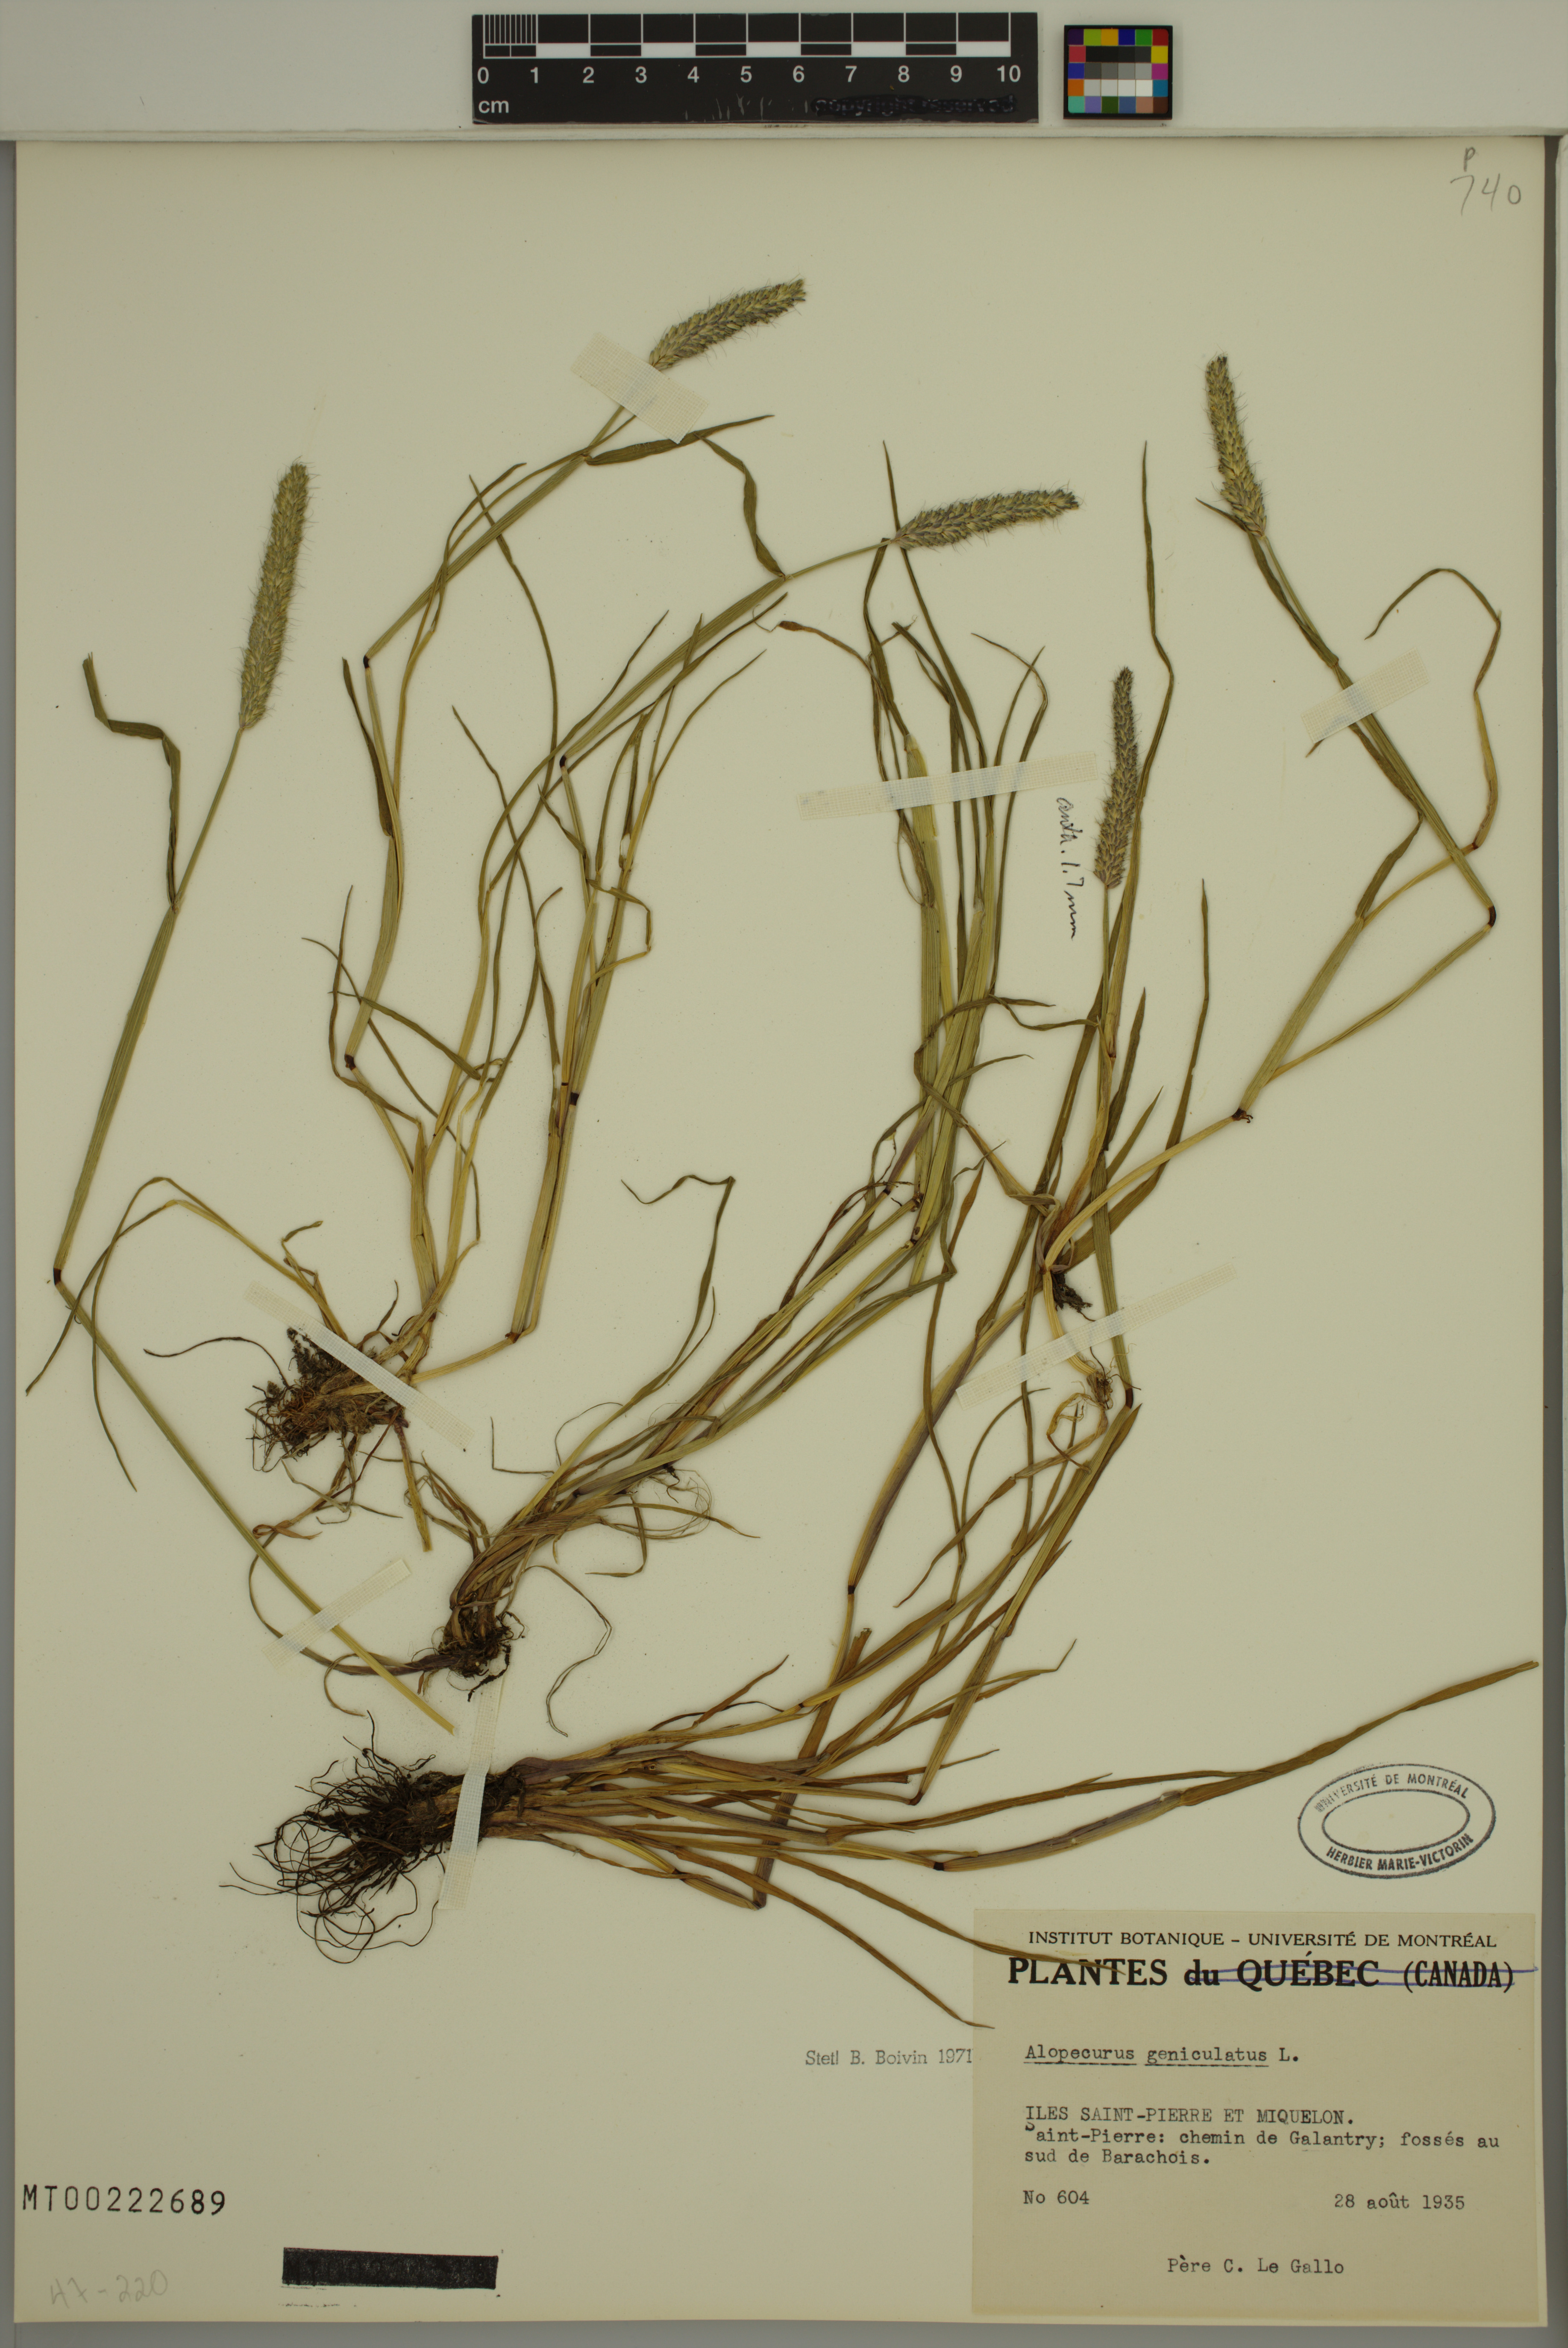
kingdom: Plantae
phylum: Tracheophyta
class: Liliopsida
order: Poales
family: Poaceae
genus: Alopecurus
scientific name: Alopecurus geniculatus
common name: Water foxtail
